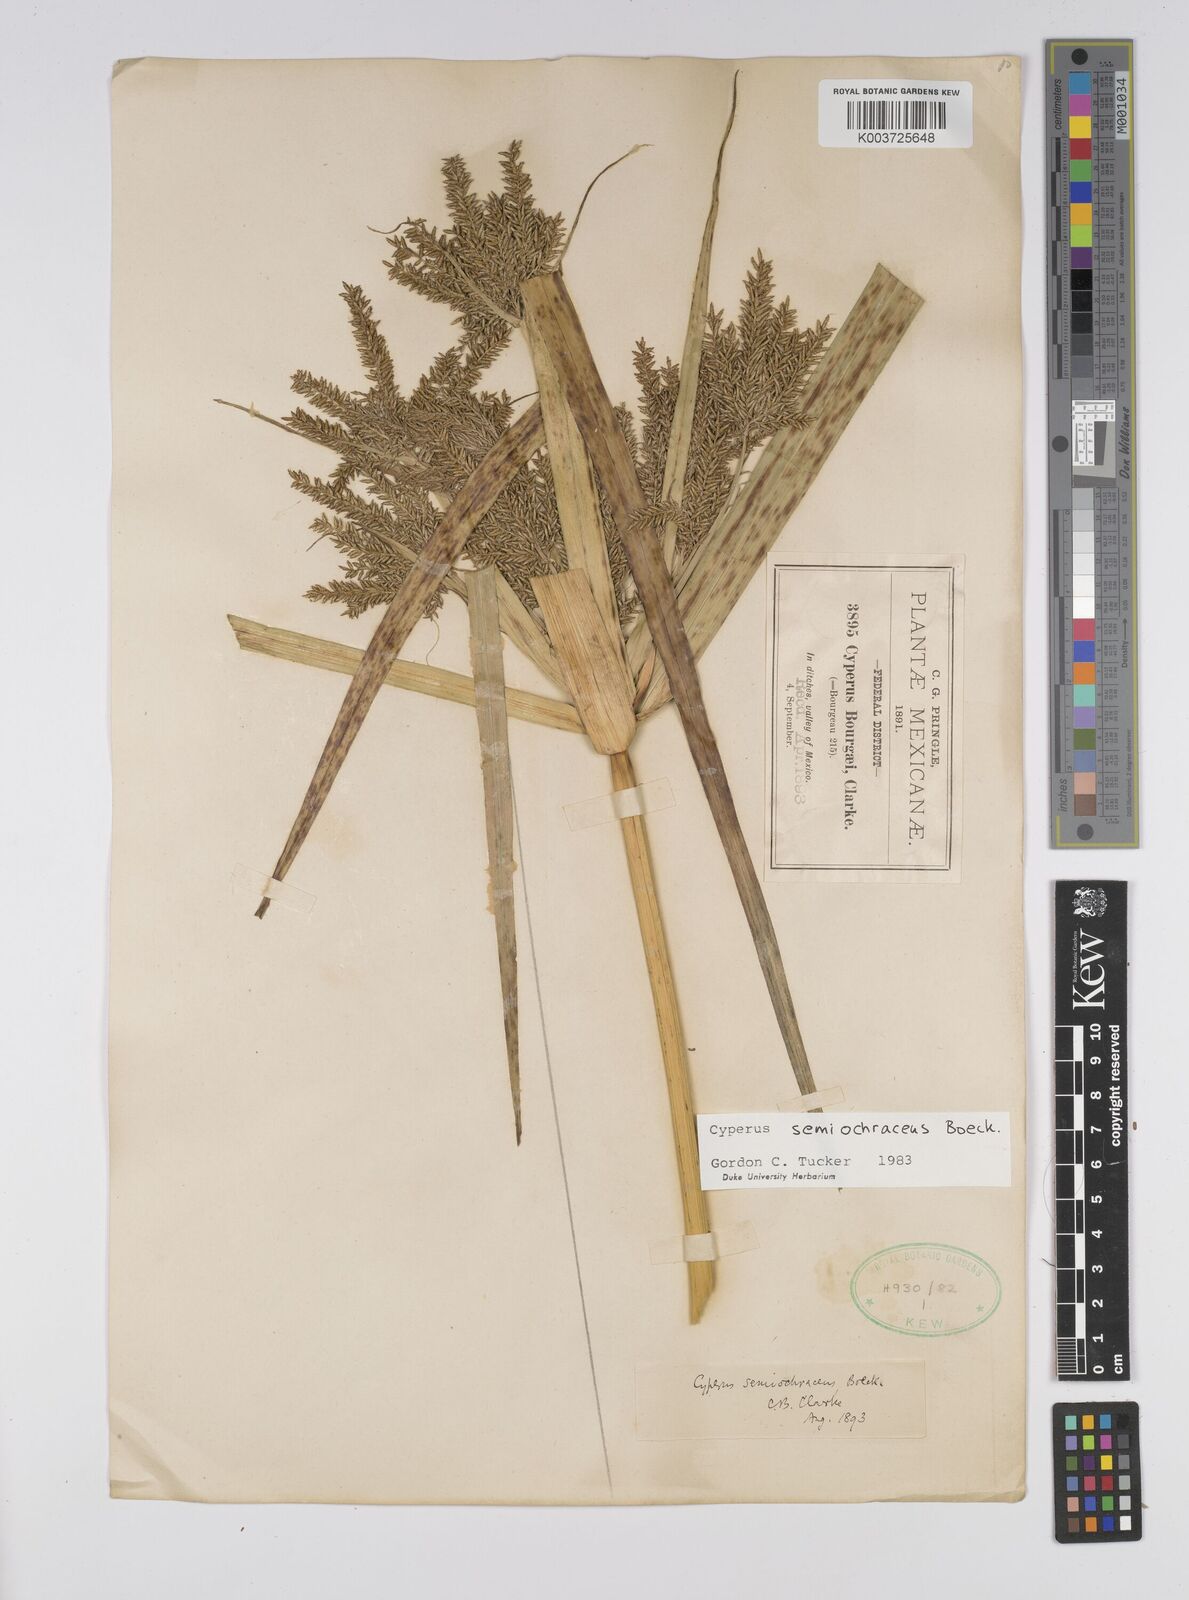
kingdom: Plantae
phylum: Tracheophyta
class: Liliopsida
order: Poales
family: Cyperaceae
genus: Cyperus
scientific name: Cyperus semiochraceus
